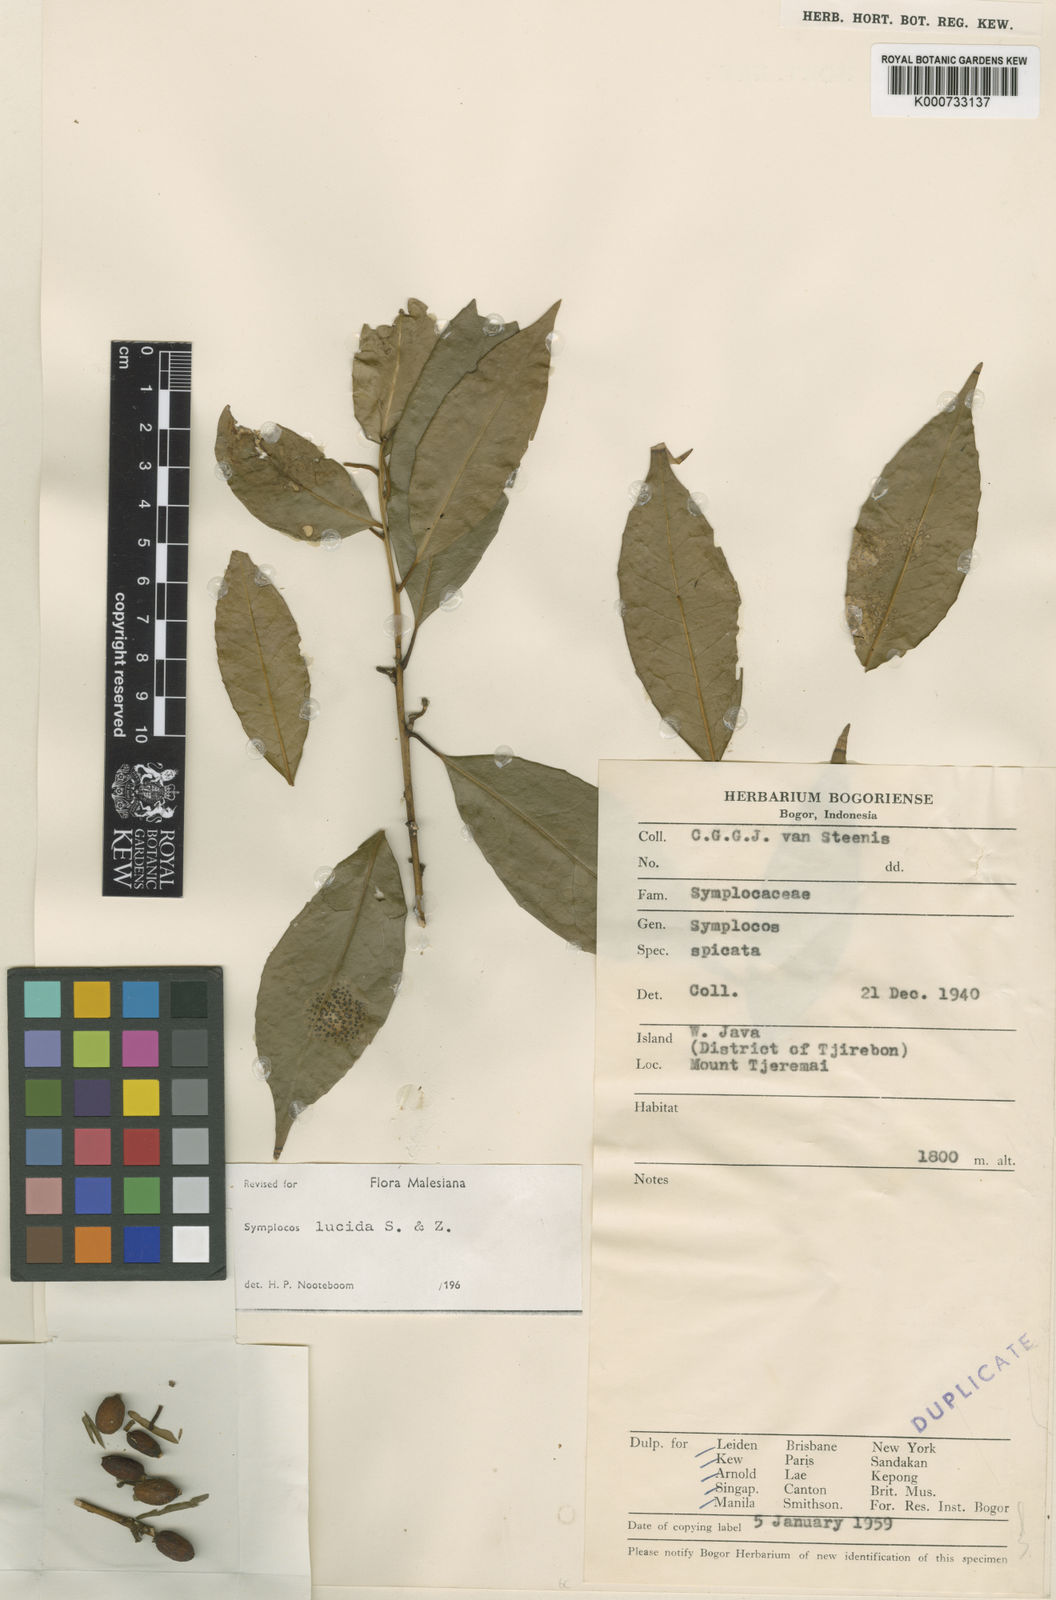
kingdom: Plantae
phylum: Tracheophyta
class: Magnoliopsida
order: Ericales
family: Symplocaceae
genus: Symplocos
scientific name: Symplocos
